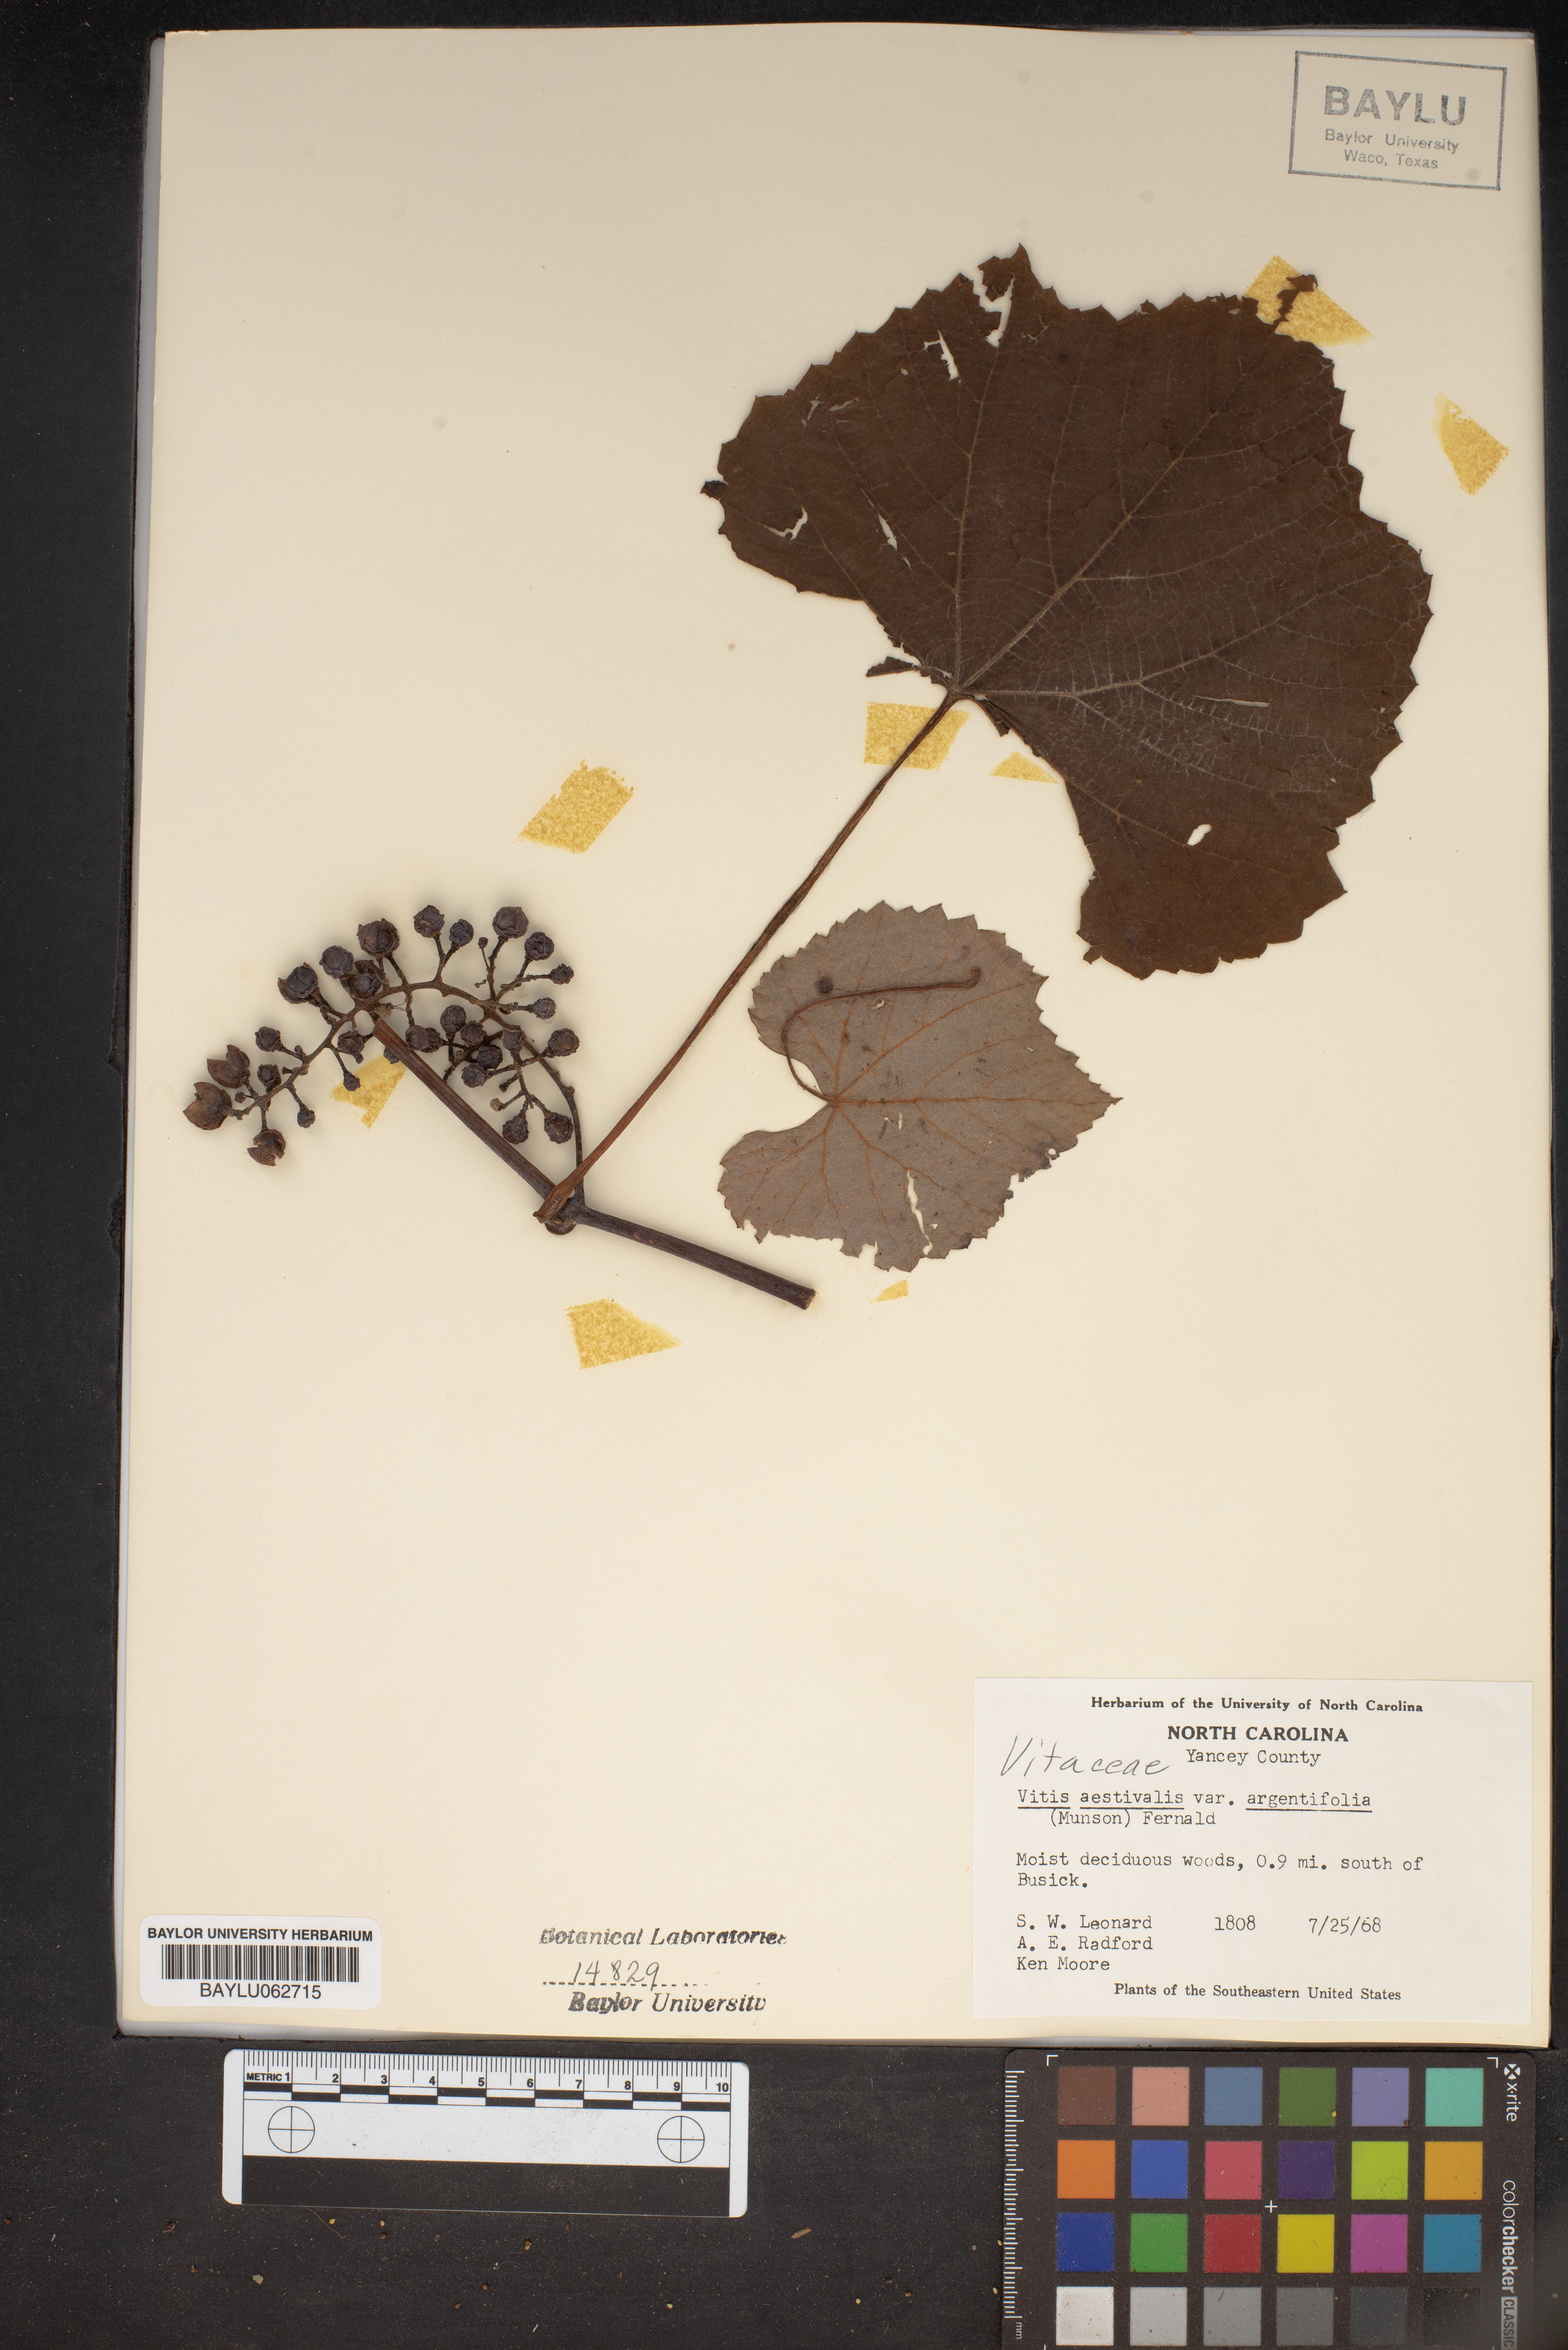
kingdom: Plantae
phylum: Tracheophyta
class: Magnoliopsida
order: Vitales
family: Vitaceae
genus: Vitis
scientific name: Vitis aestivalis
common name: Pigeon grape
